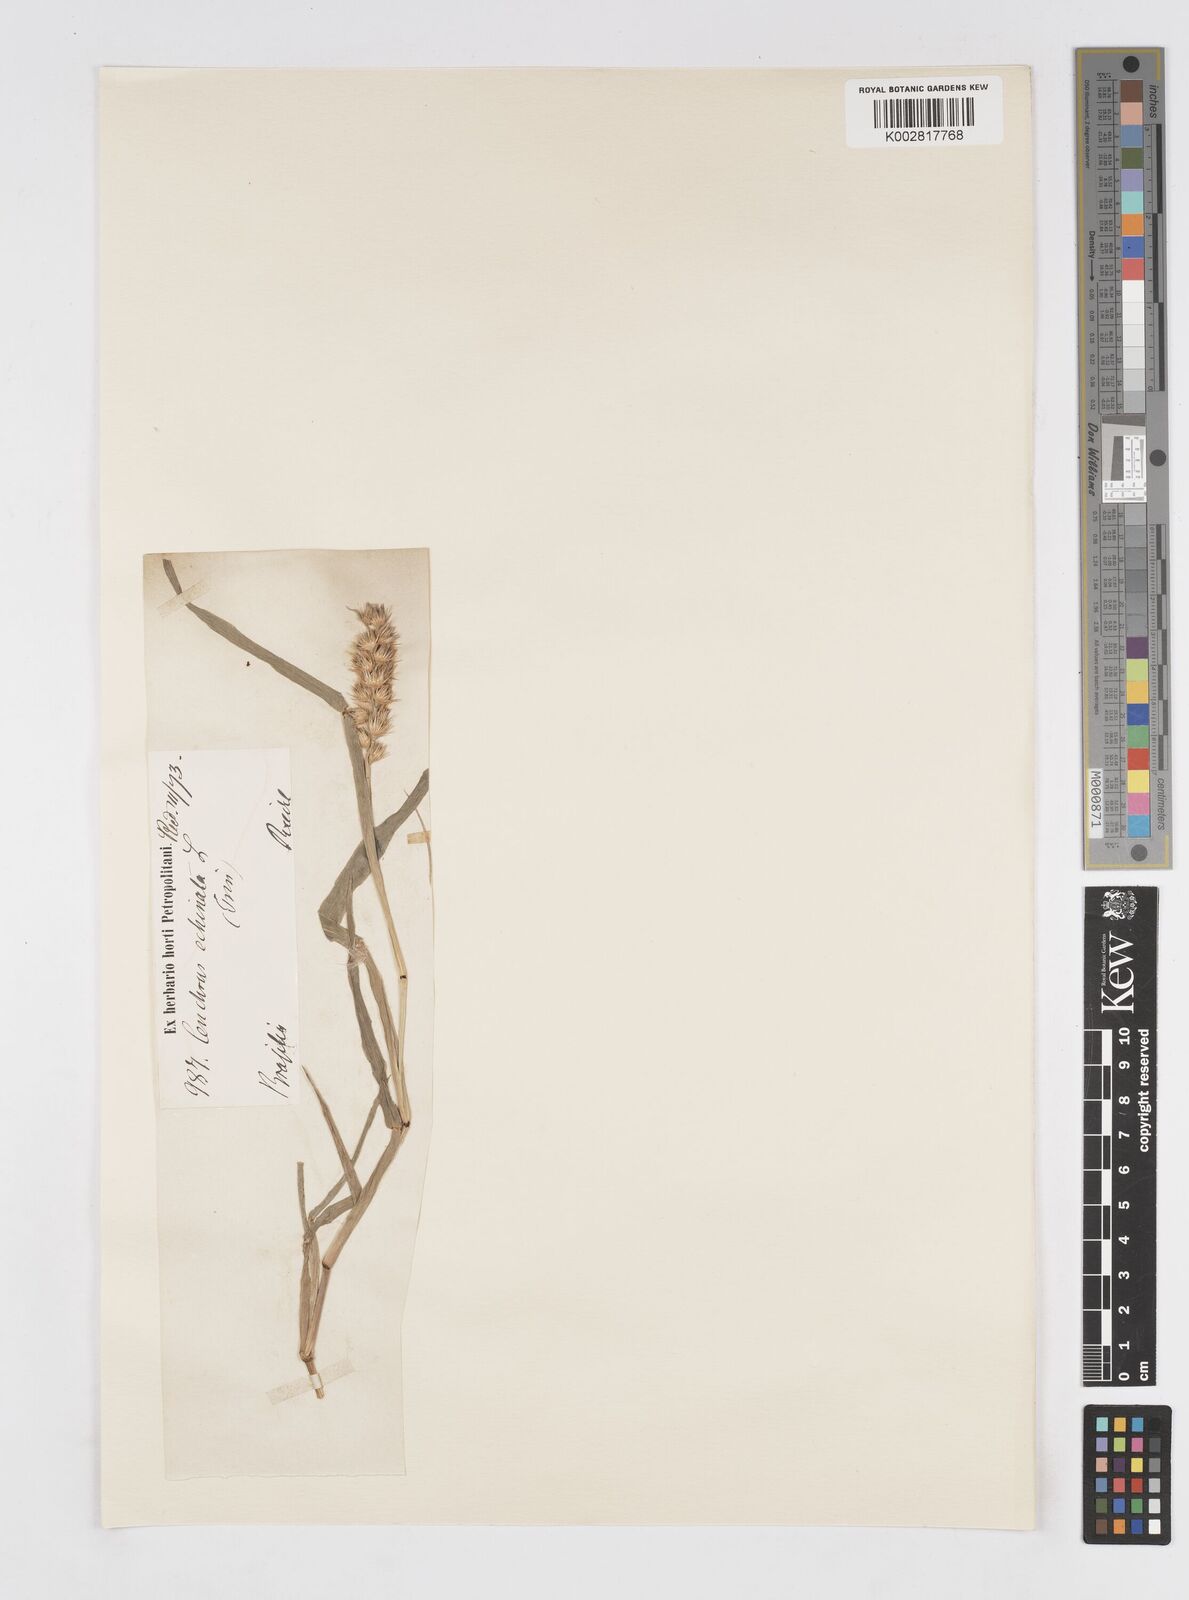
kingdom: Plantae
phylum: Tracheophyta
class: Liliopsida
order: Poales
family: Poaceae
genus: Cenchrus
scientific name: Cenchrus
